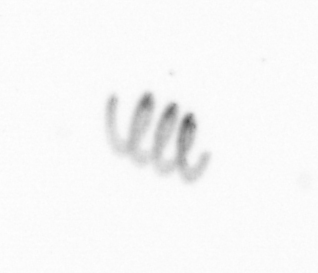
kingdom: Chromista
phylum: Ochrophyta
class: Bacillariophyceae
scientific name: Bacillariophyceae
